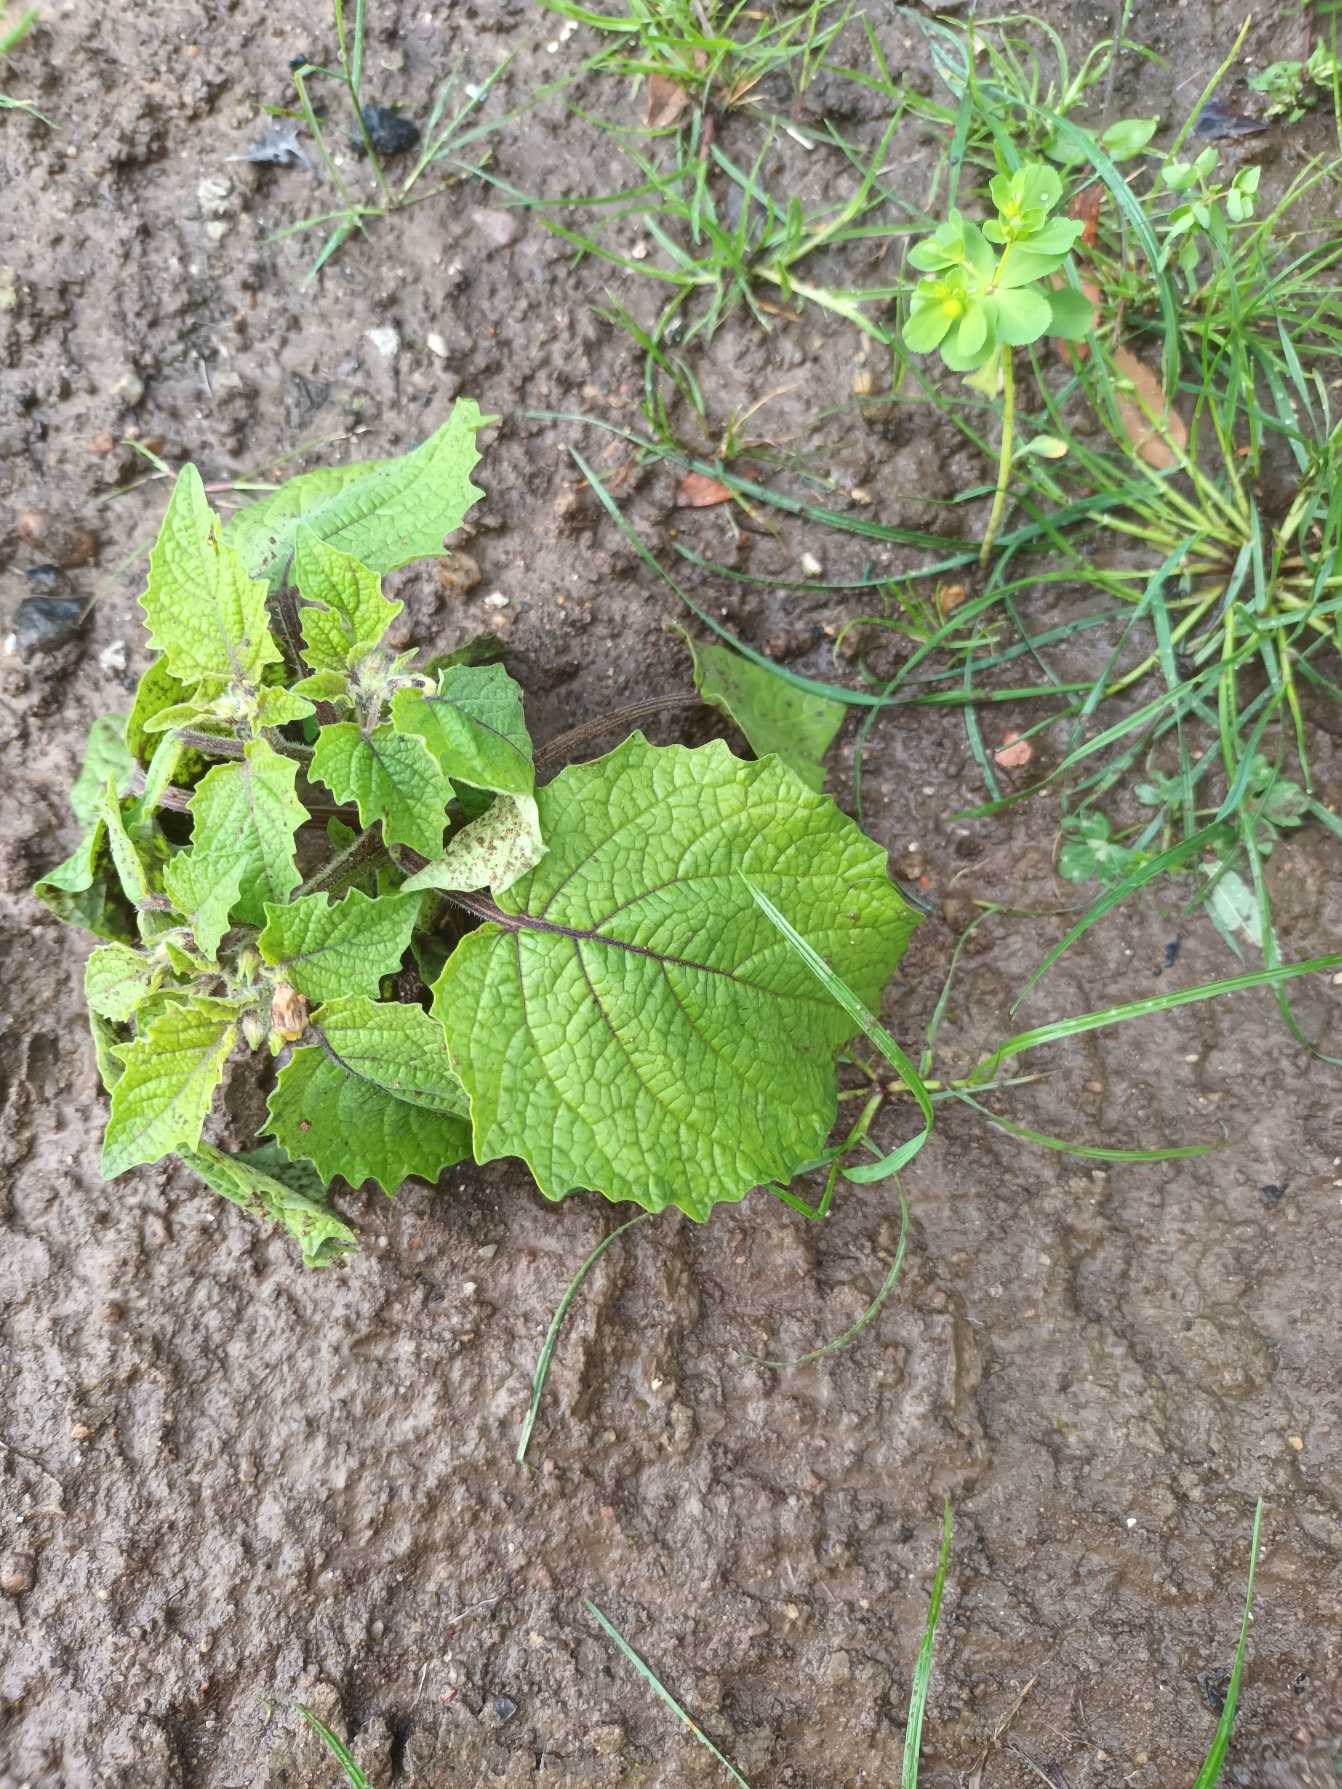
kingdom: Plantae
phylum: Tracheophyta
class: Magnoliopsida
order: Solanales
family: Solanaceae
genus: Physalis
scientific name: Physalis grisea
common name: Jordbærtomat
